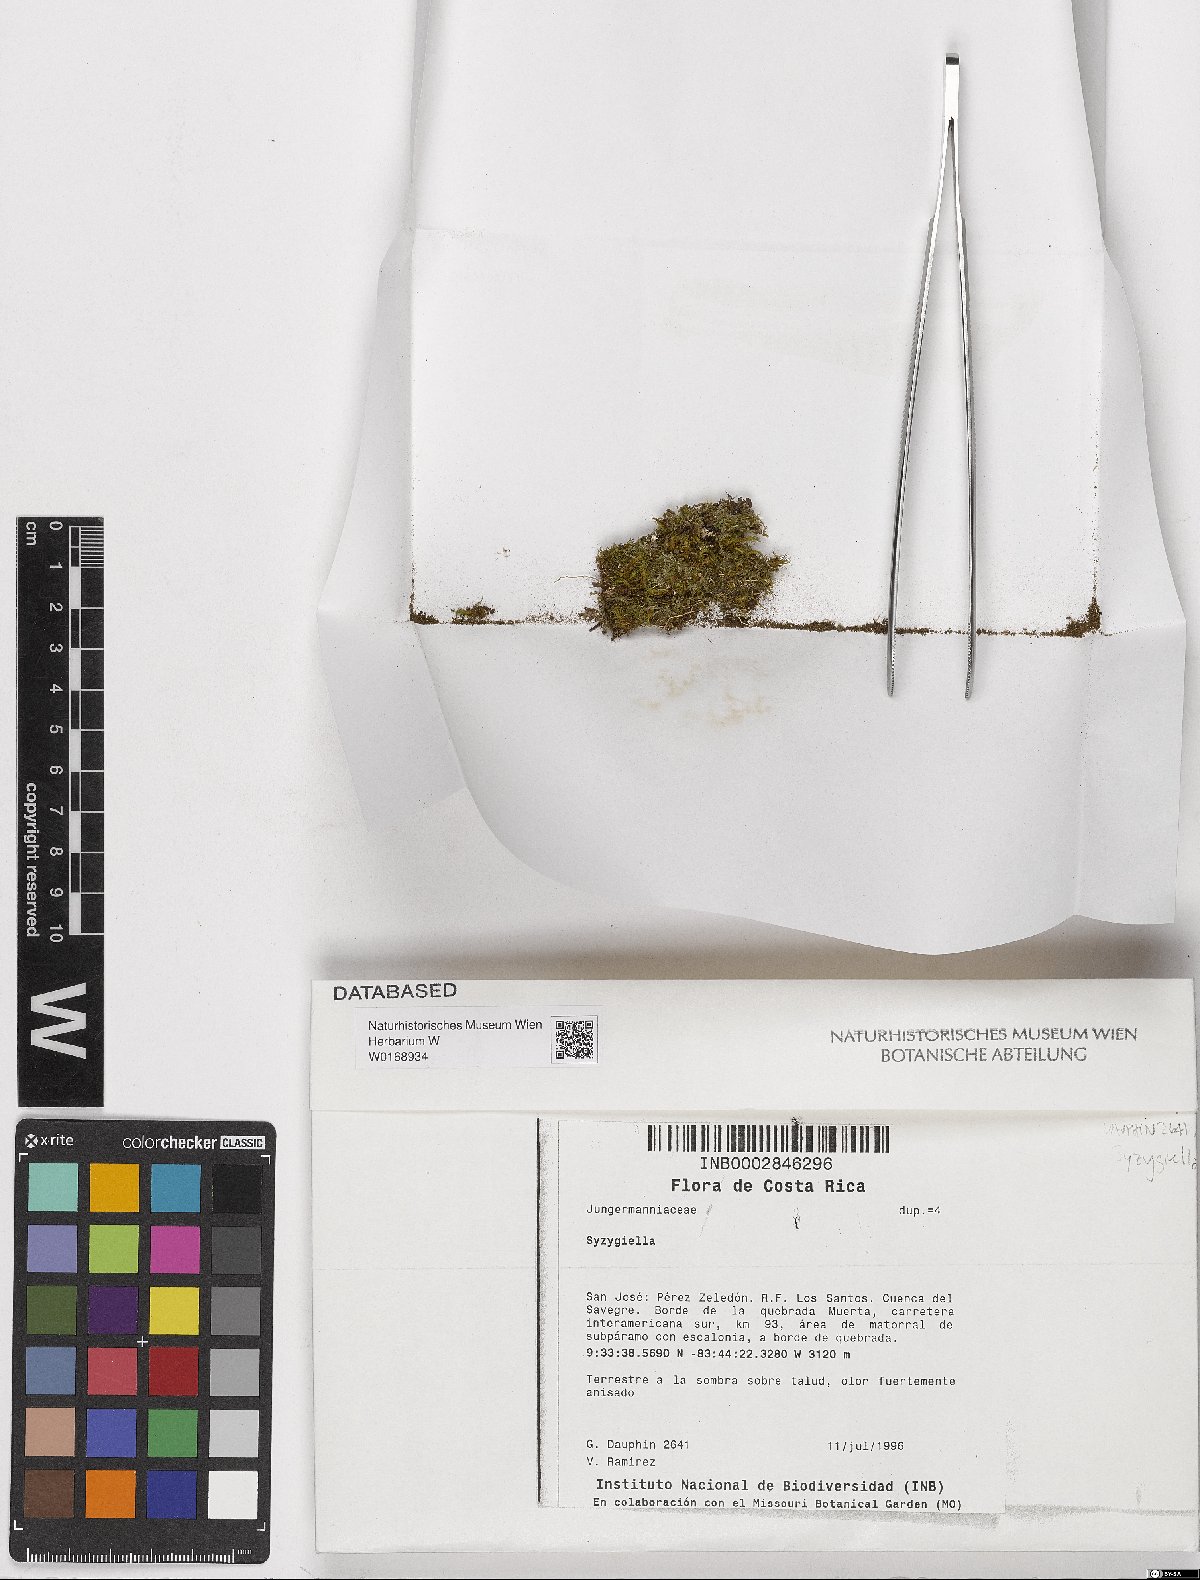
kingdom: Plantae
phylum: Marchantiophyta
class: Jungermanniopsida
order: Jungermanniales
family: Adelanthaceae
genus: Syzygiella
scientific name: Syzygiella
